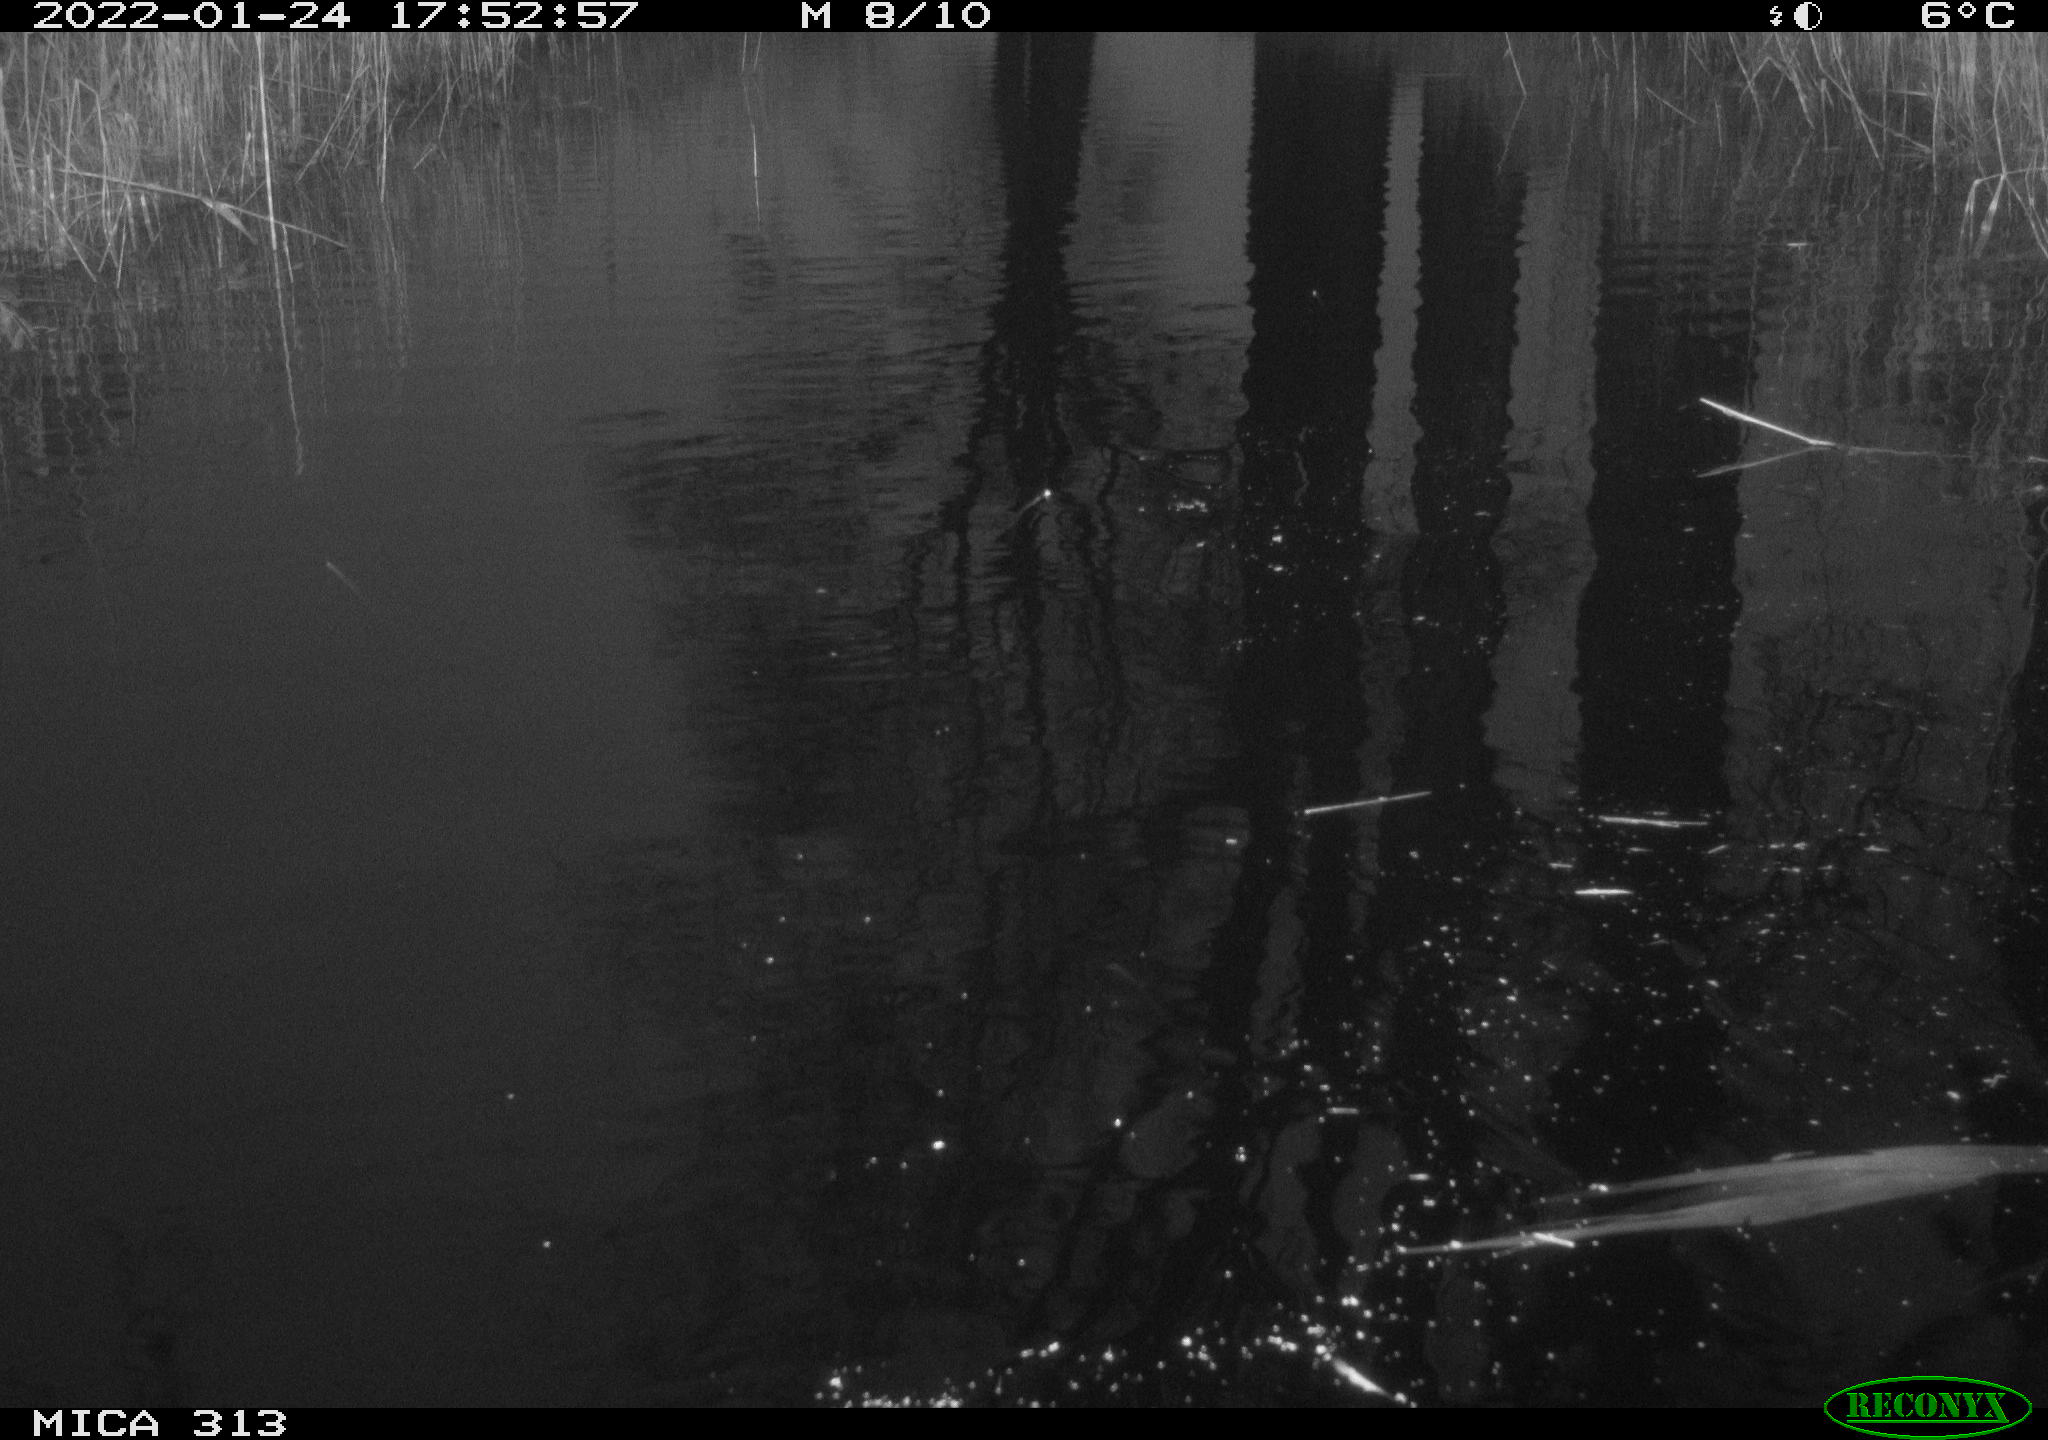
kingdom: Animalia
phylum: Chordata
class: Aves
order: Gruiformes
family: Rallidae
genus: Fulica
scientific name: Fulica atra
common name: Eurasian coot
